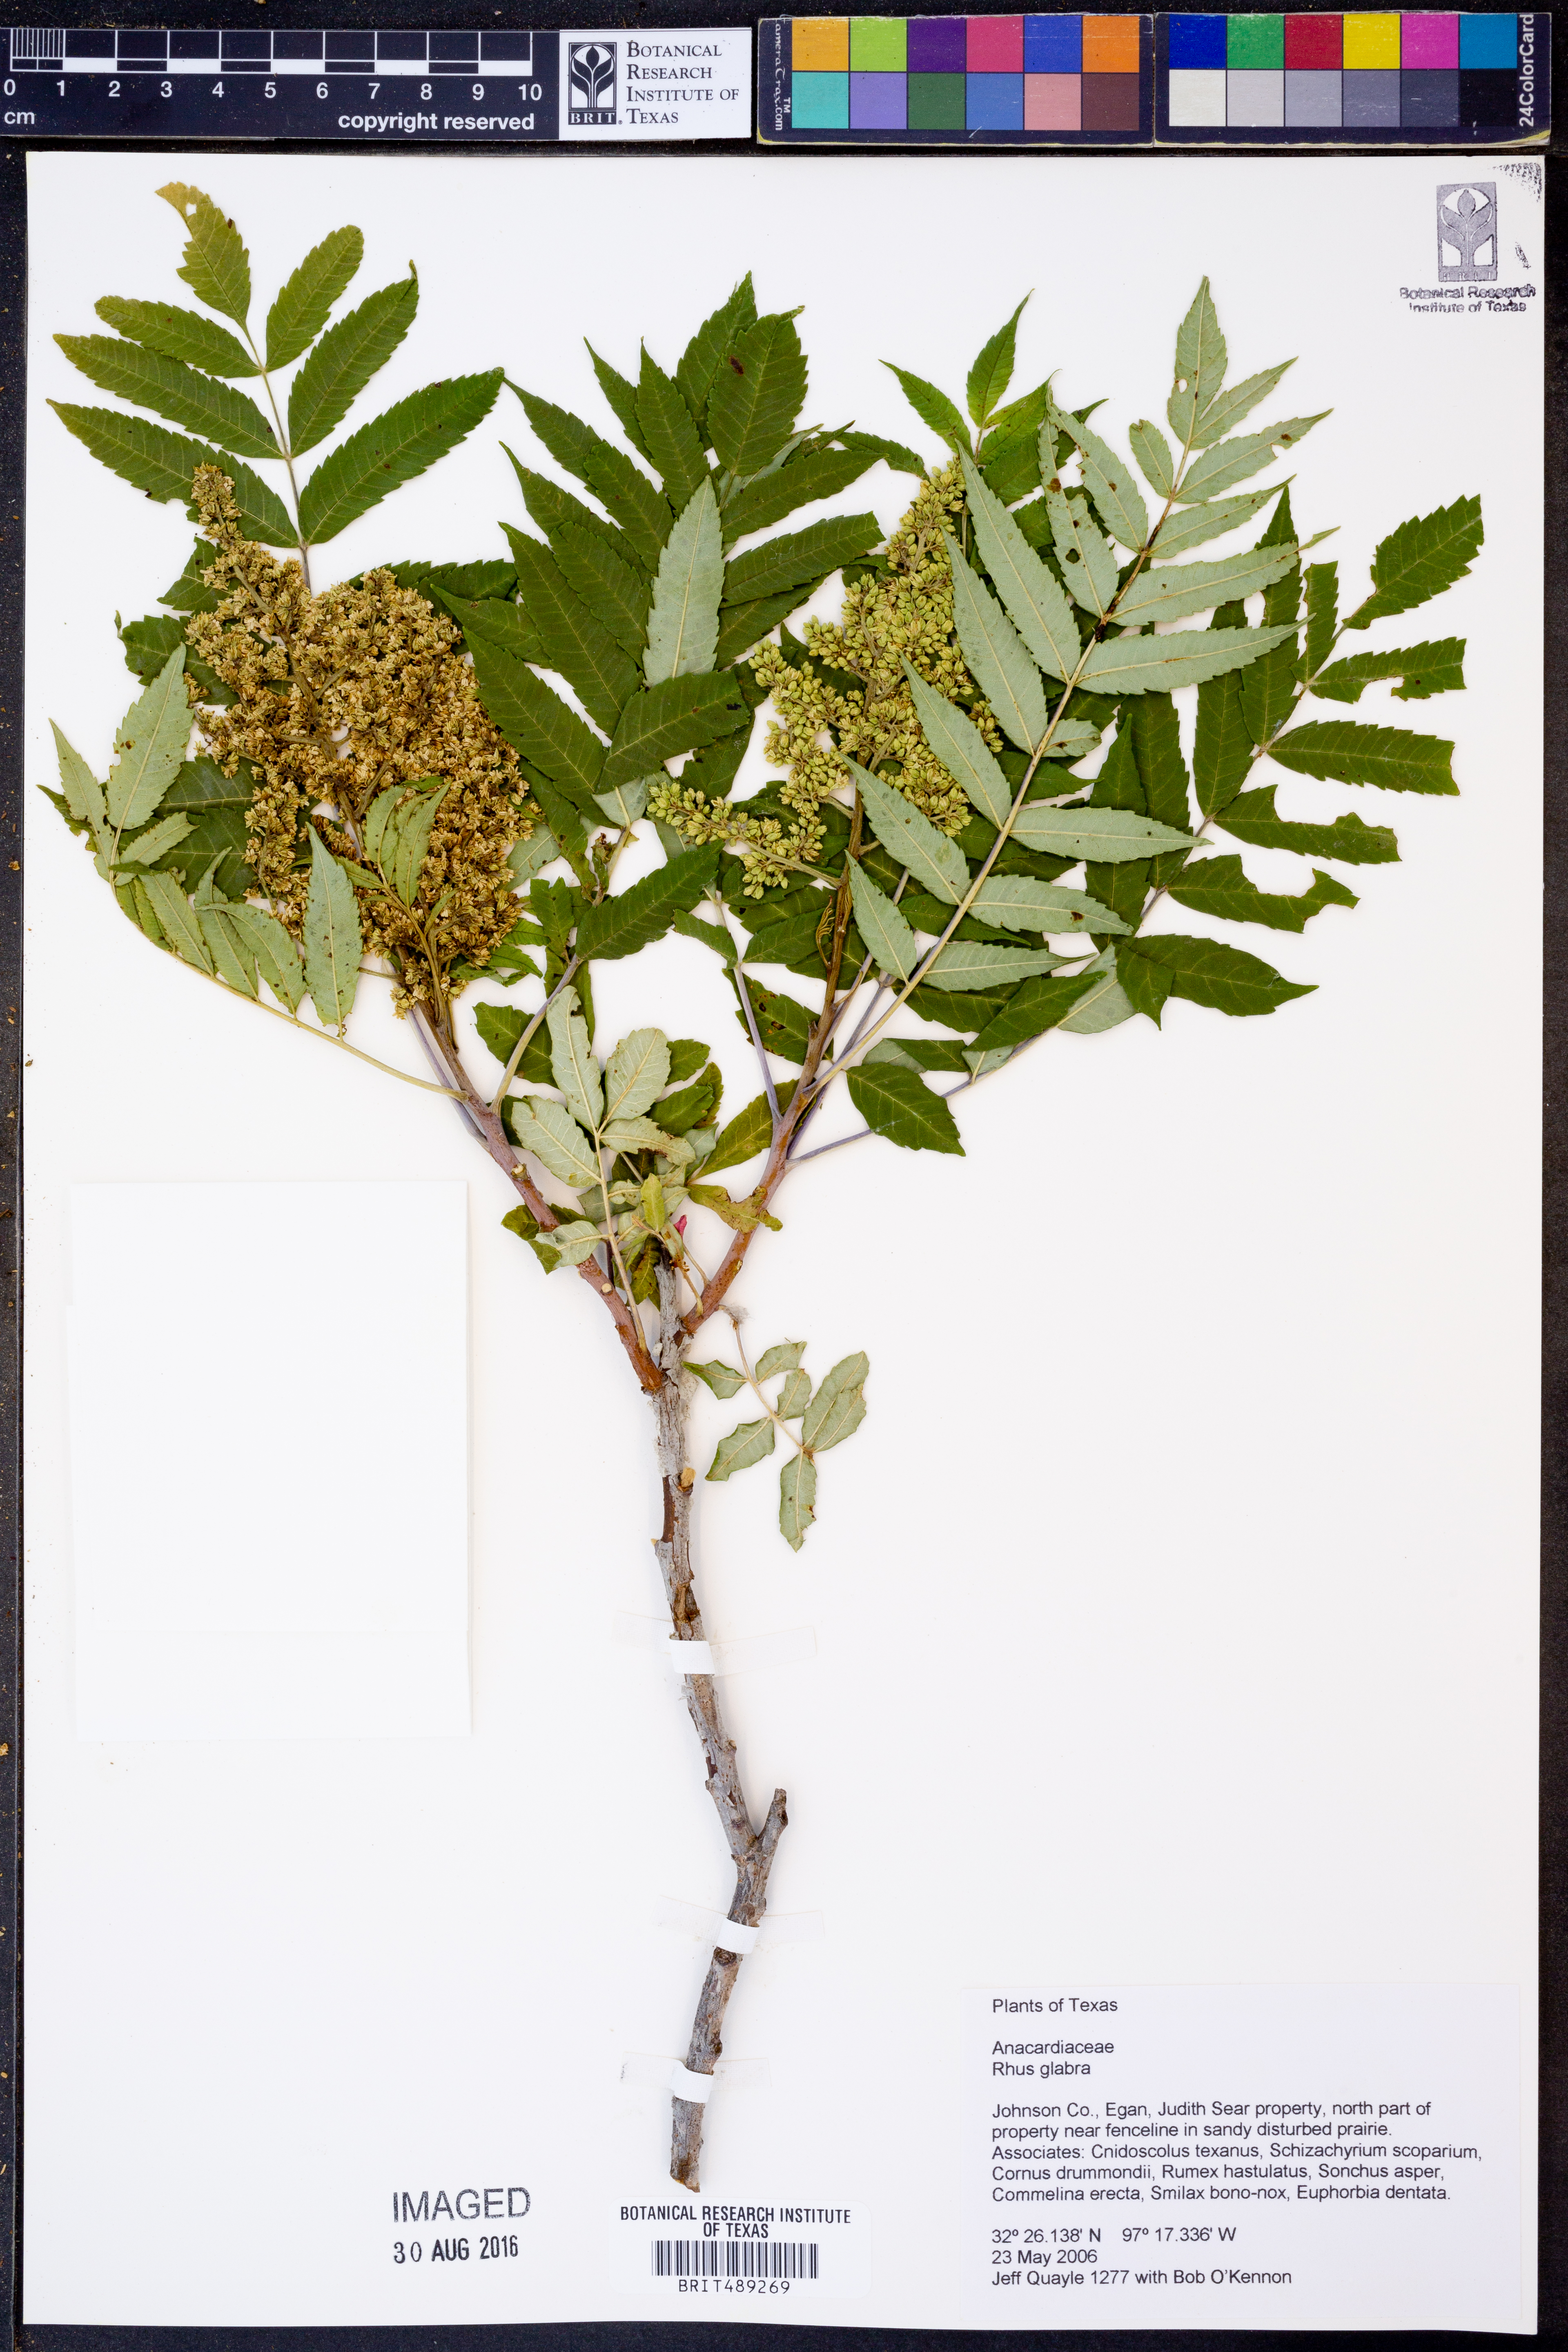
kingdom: Plantae
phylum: Tracheophyta
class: Magnoliopsida
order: Sapindales
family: Anacardiaceae
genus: Rhus
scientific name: Rhus glabra
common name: Scarlet sumac
